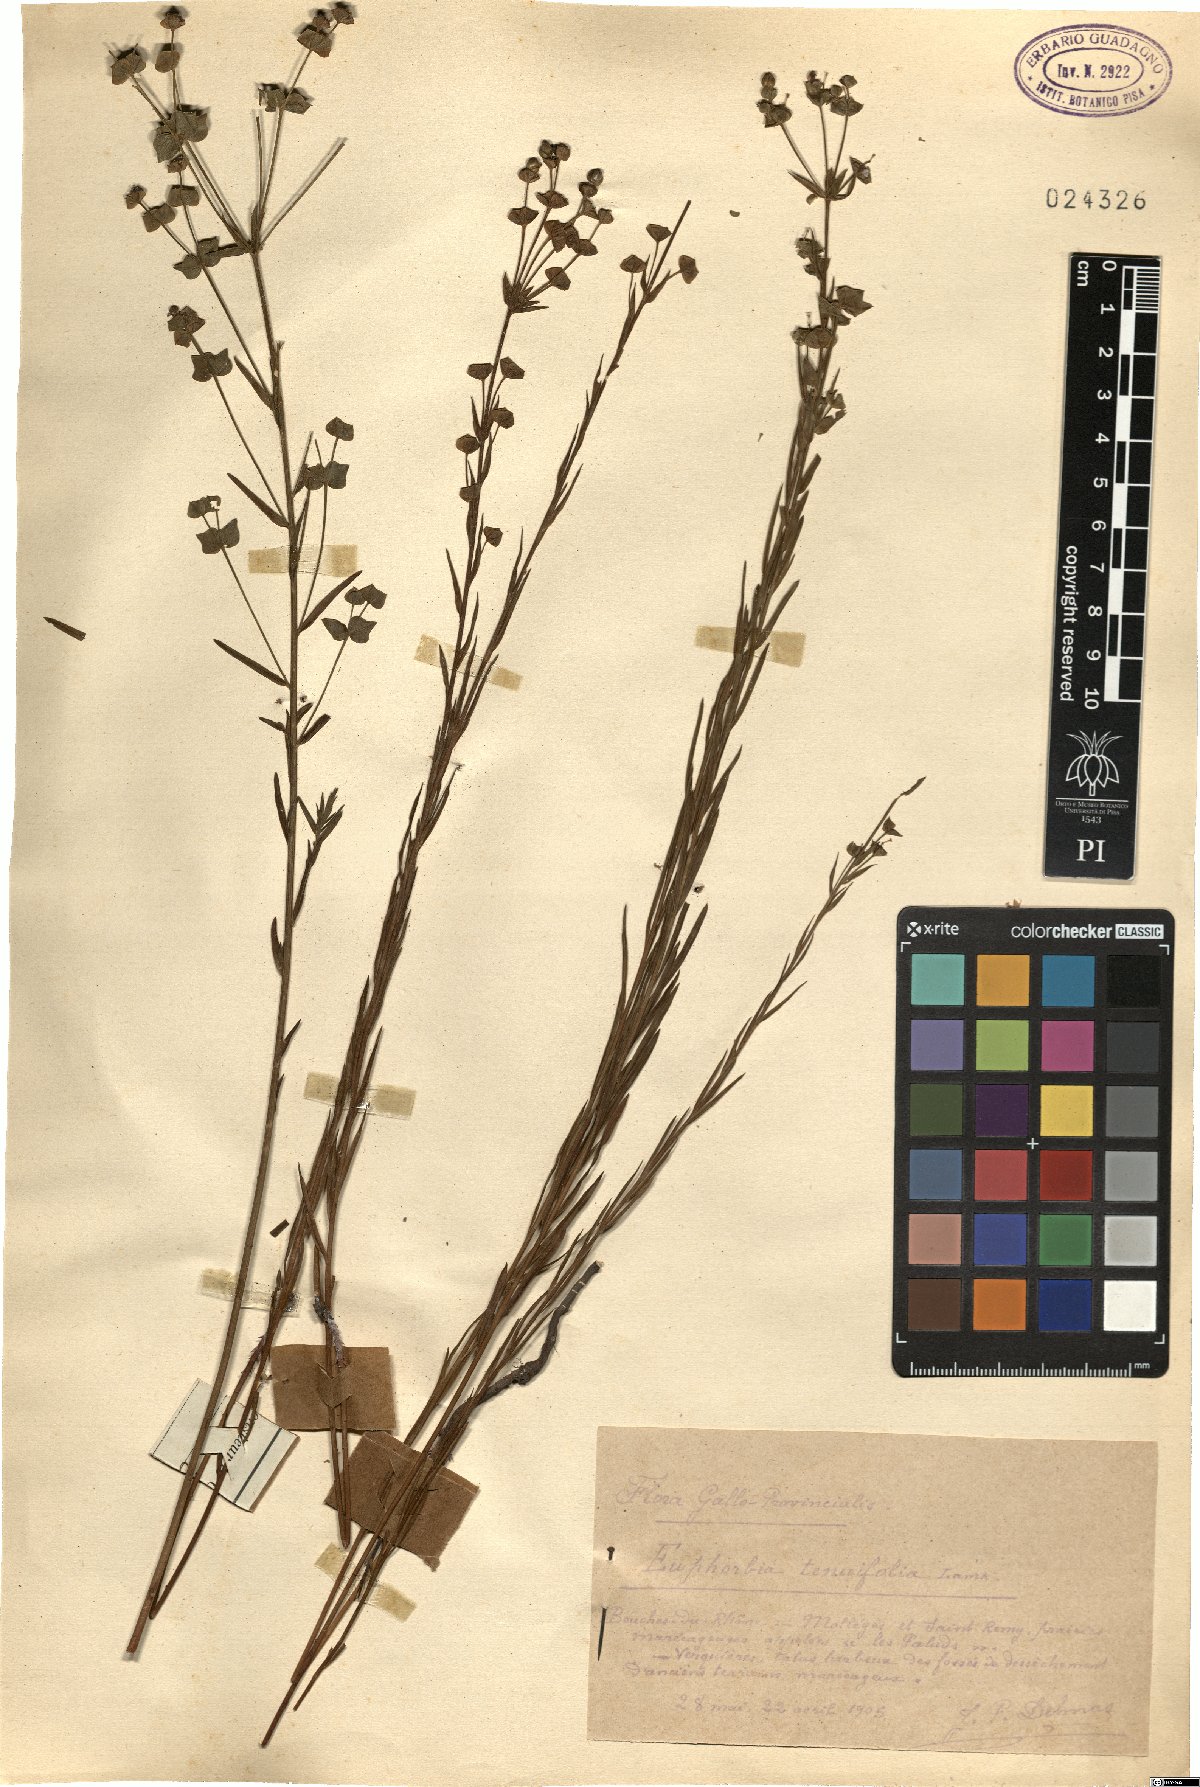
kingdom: Plantae
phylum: Tracheophyta
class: Magnoliopsida
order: Malpighiales
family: Euphorbiaceae
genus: Euphorbia
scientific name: Euphorbia graminifolia
